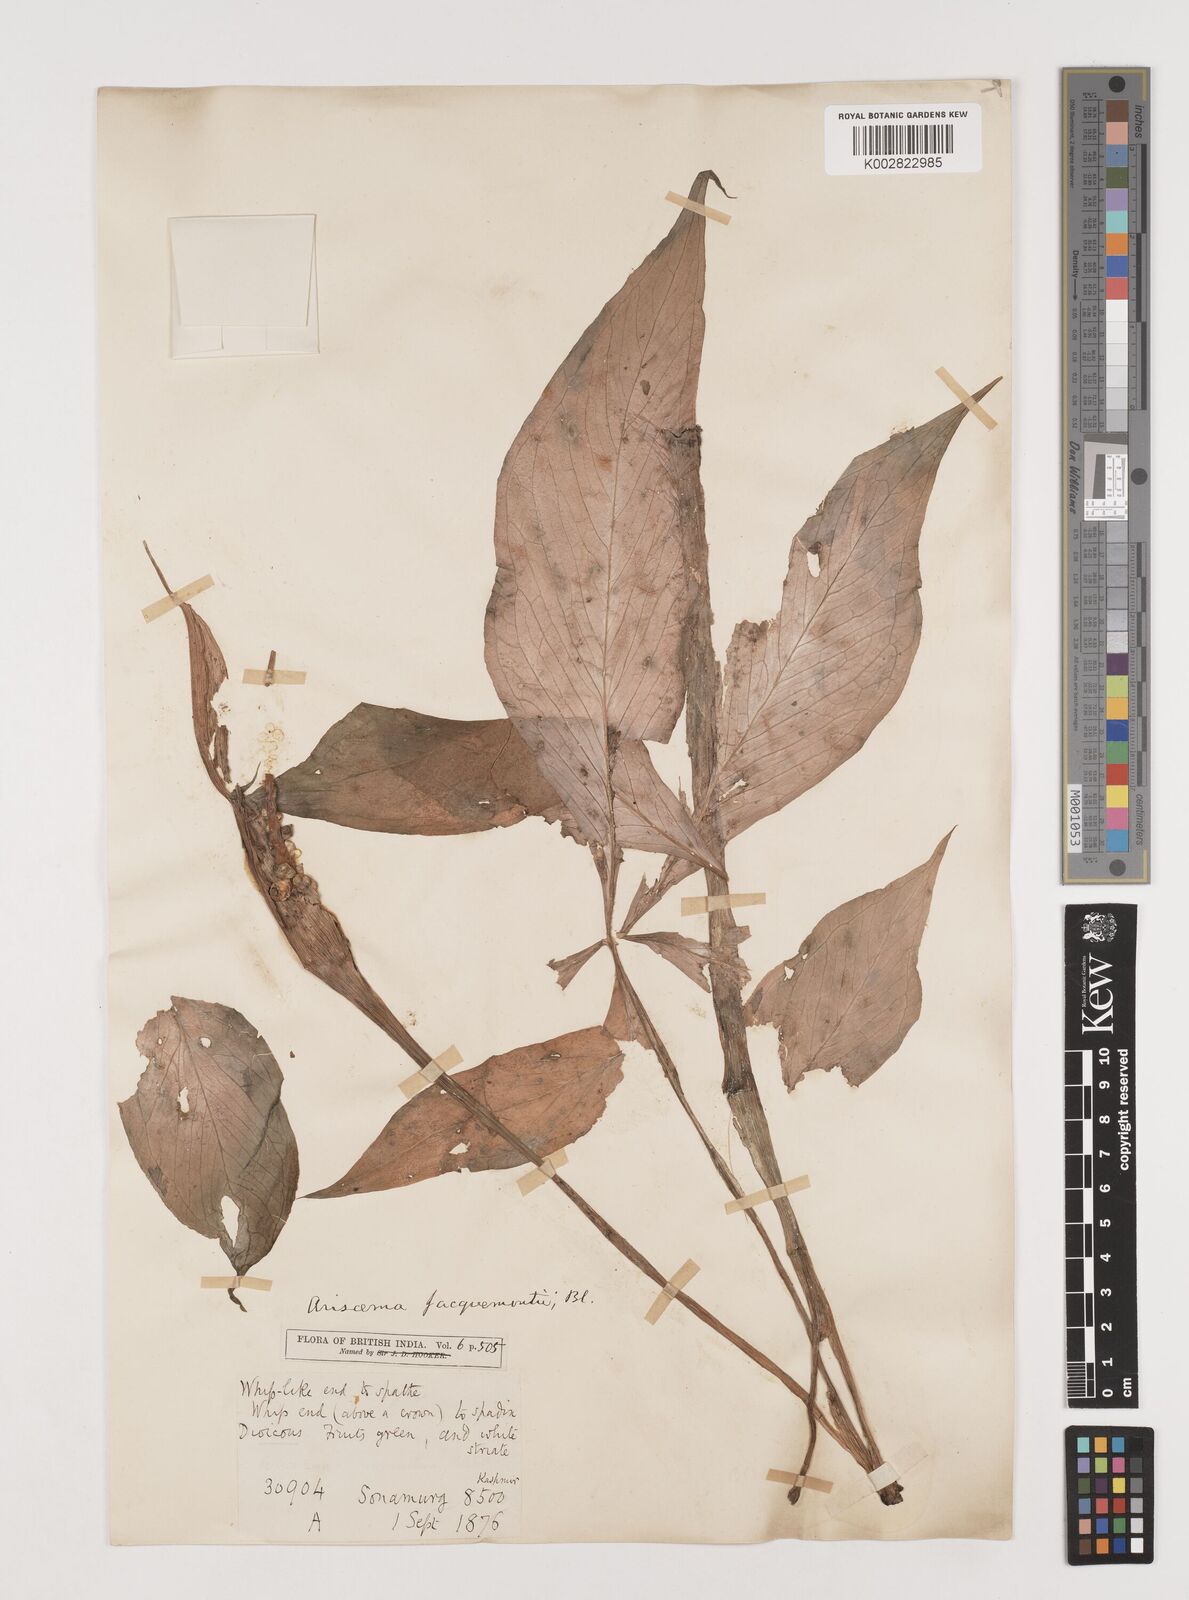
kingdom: Plantae
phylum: Tracheophyta
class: Liliopsida
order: Alismatales
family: Araceae
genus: Arisaema
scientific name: Arisaema
